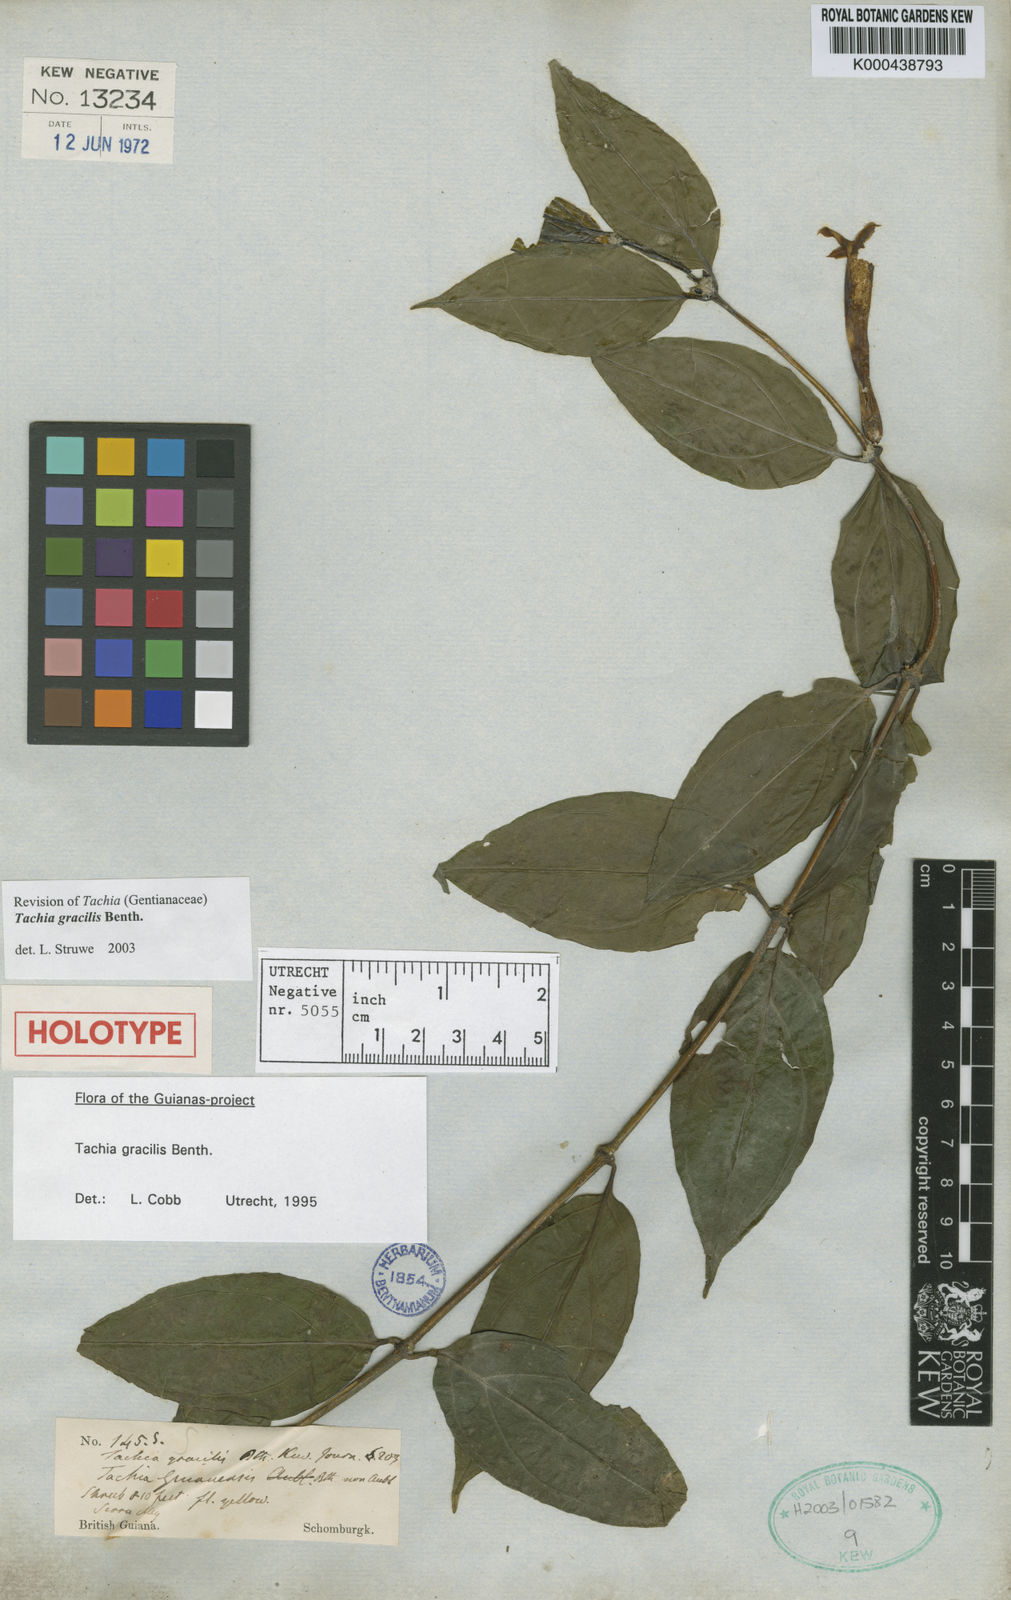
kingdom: Plantae
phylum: Tracheophyta
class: Magnoliopsida
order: Gentianales
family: Gentianaceae
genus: Tachia
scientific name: Tachia gracilis
